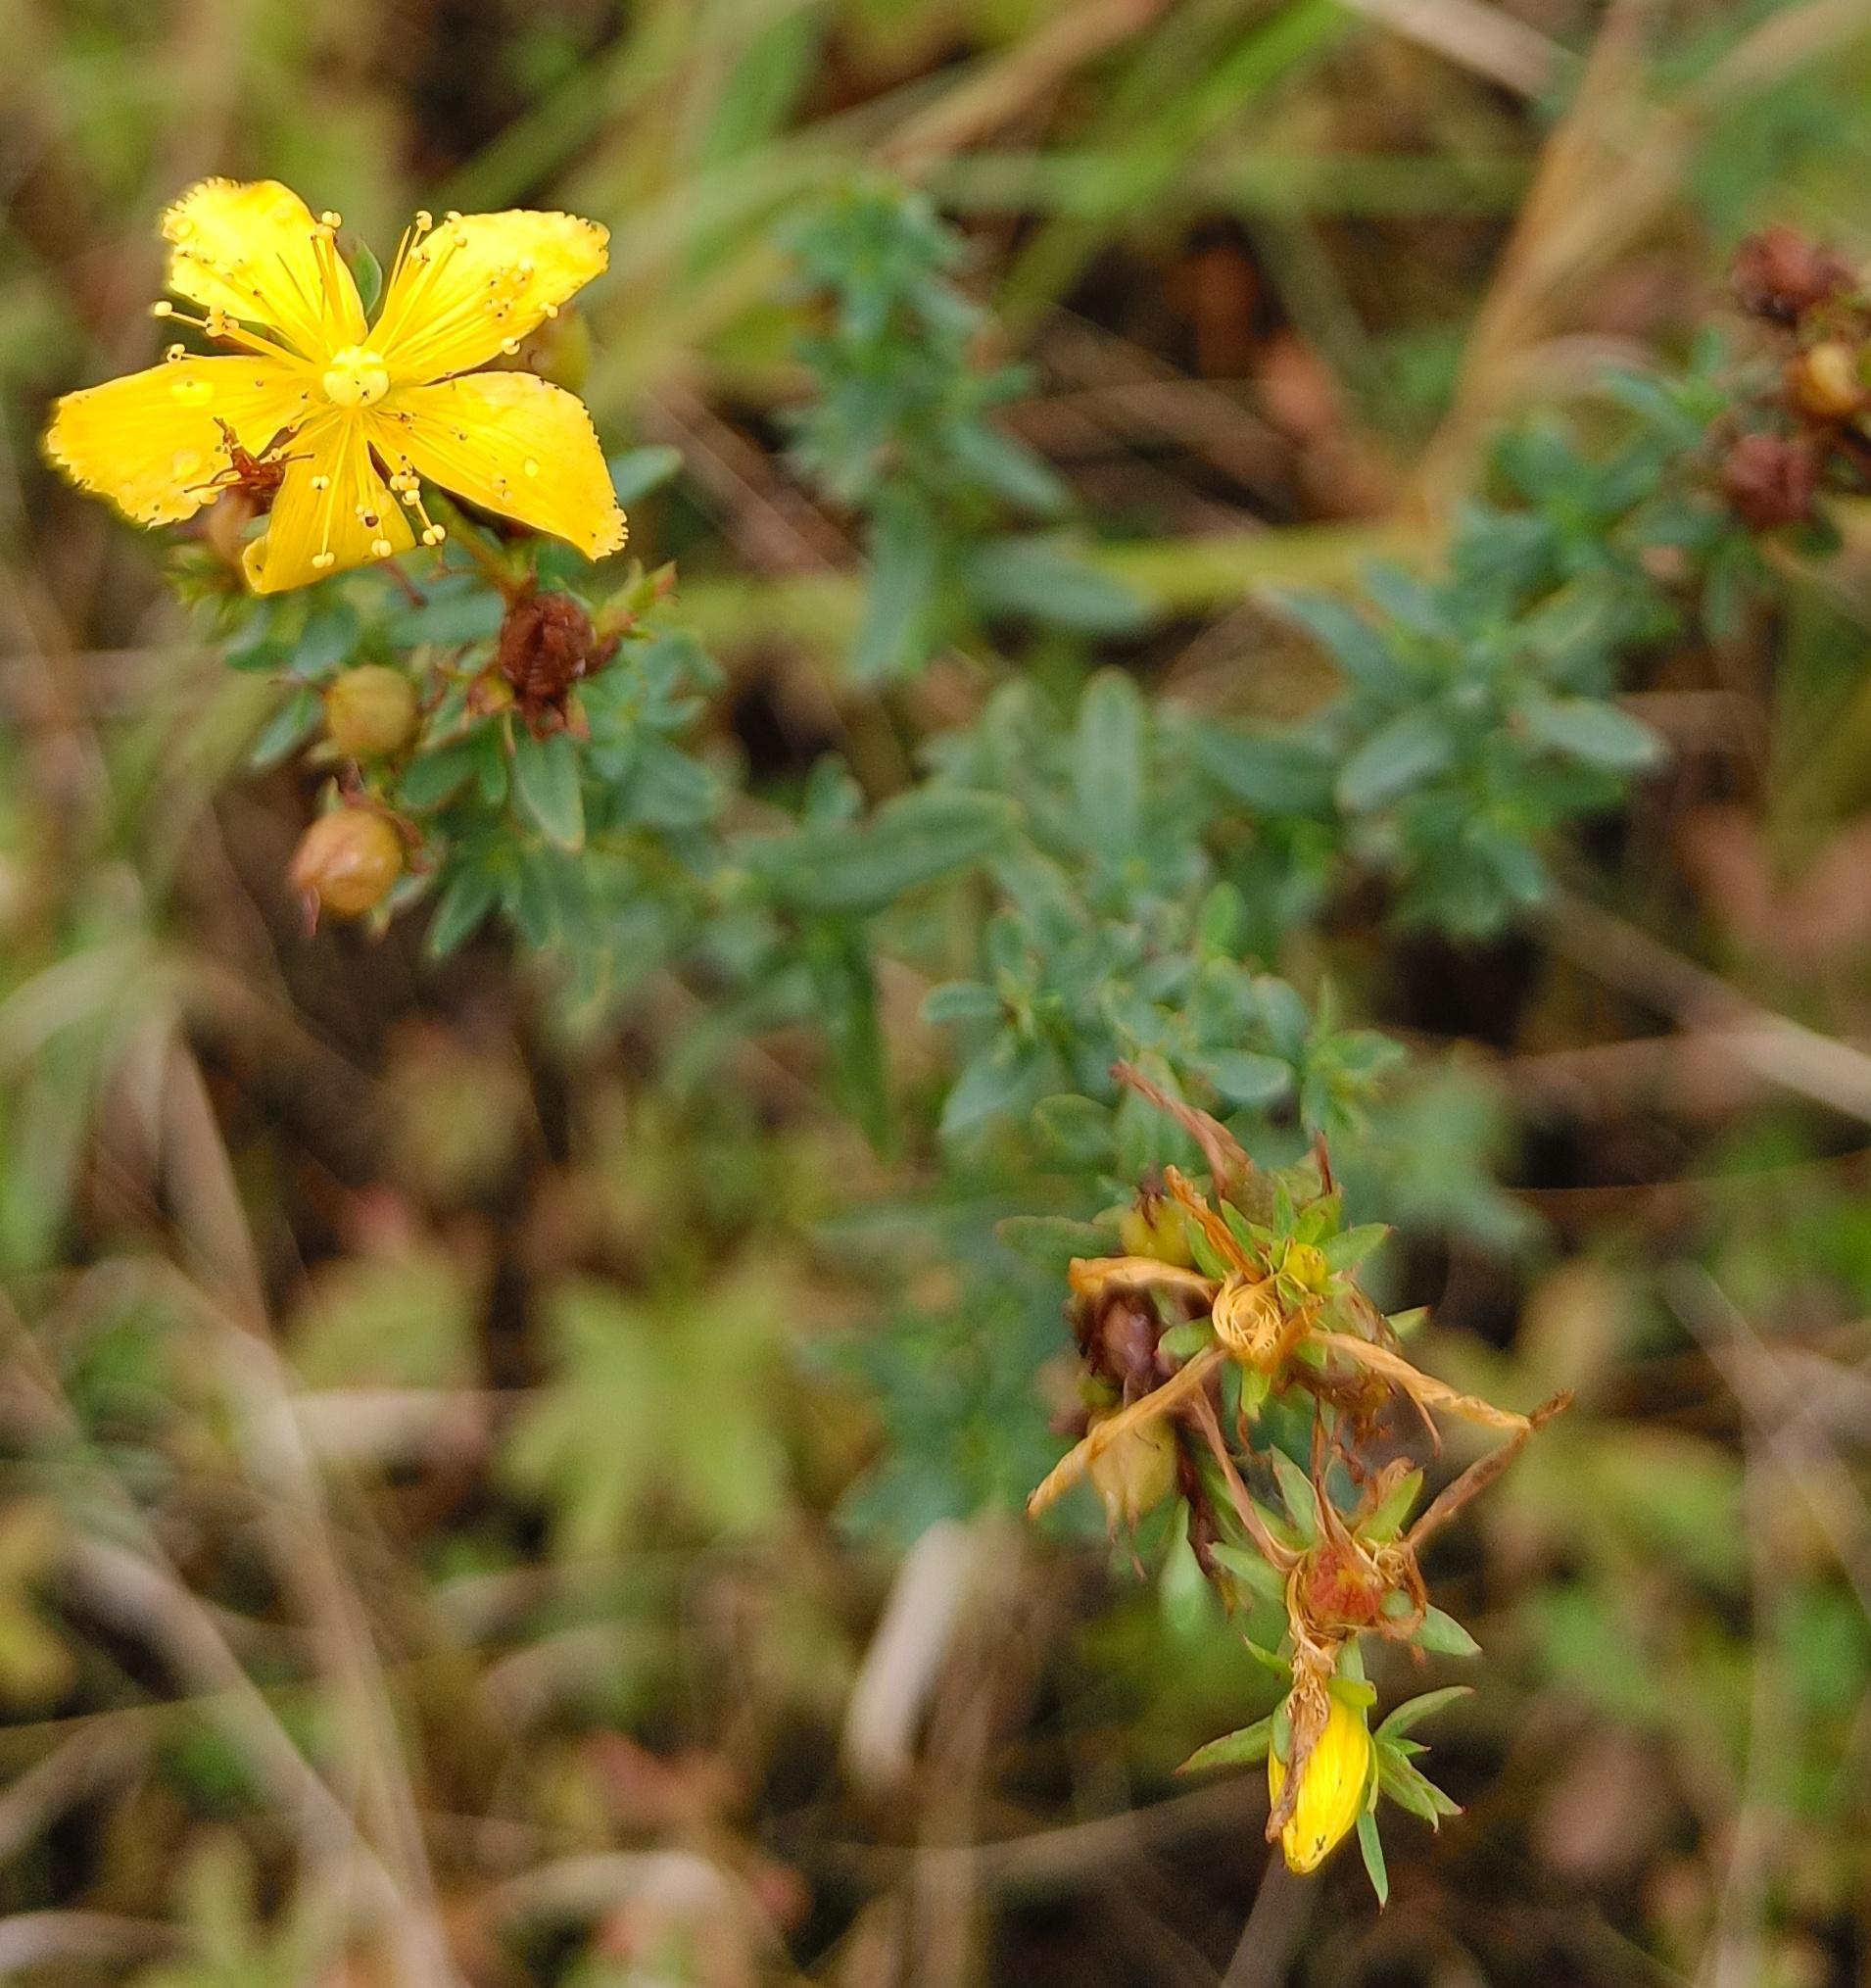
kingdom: Plantae
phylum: Tracheophyta
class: Magnoliopsida
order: Malpighiales
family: Hypericaceae
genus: Hypericum
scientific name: Hypericum perforatum
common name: Prikbladet perikon
